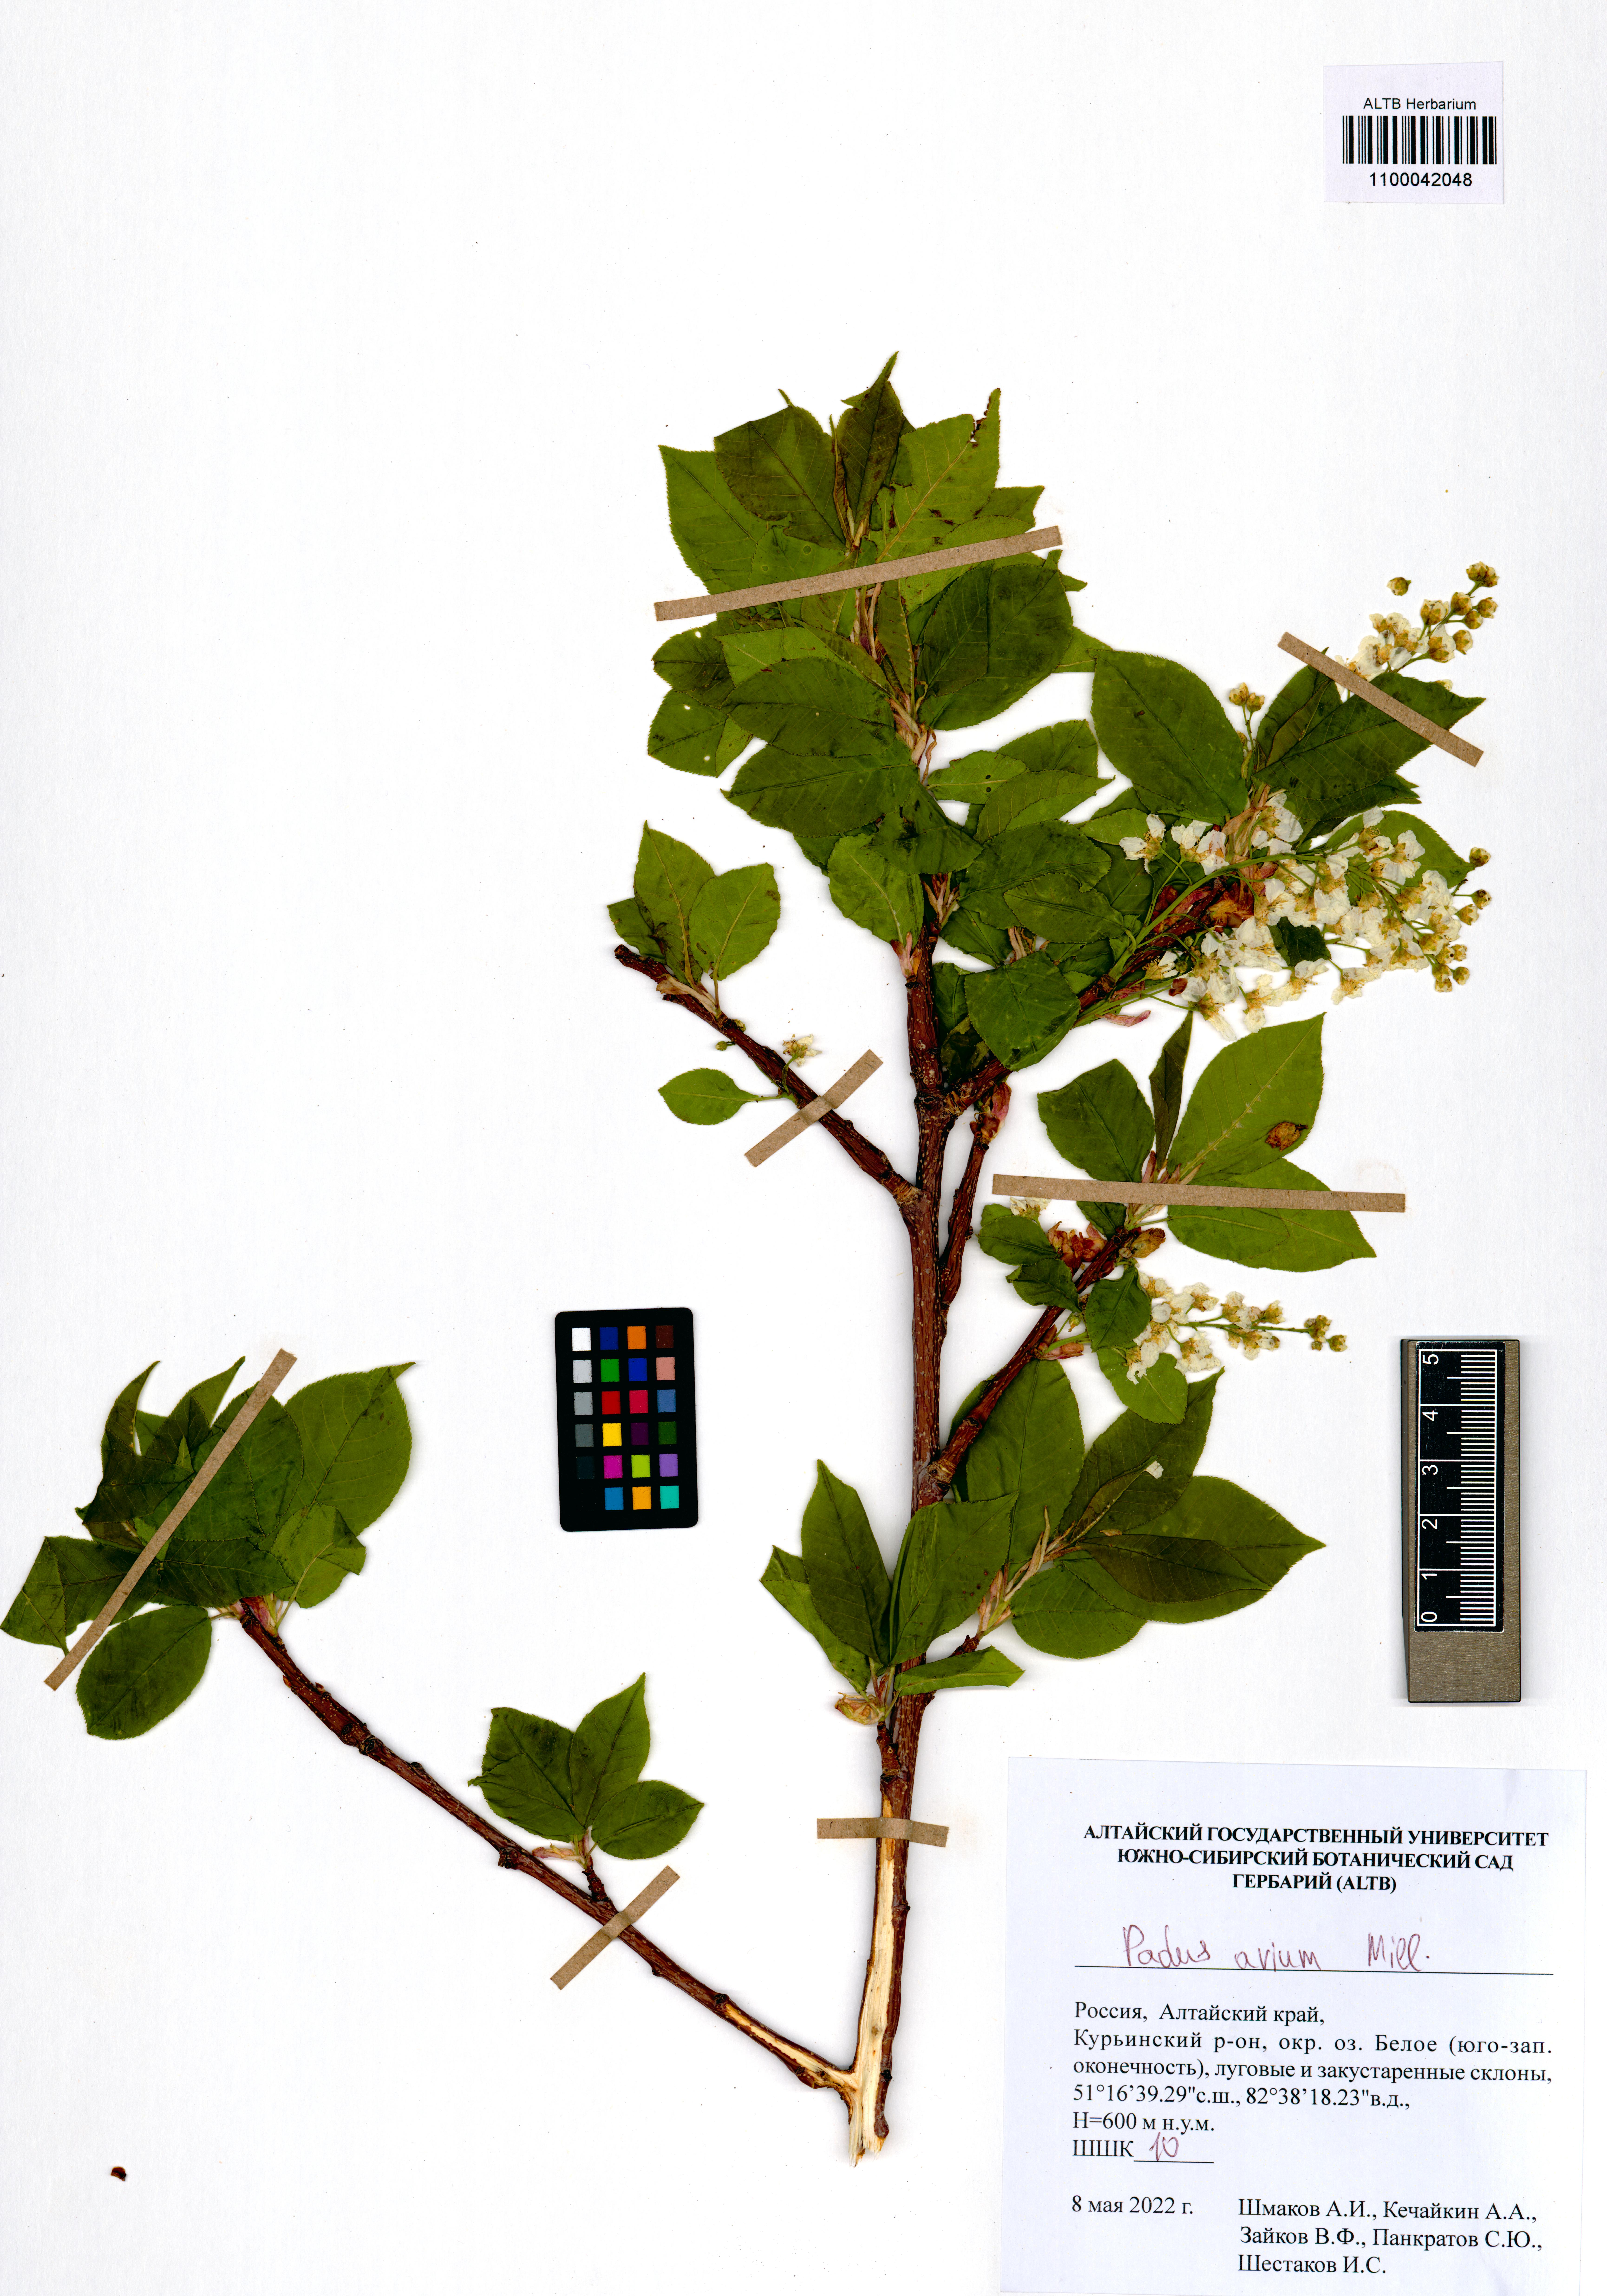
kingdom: Plantae
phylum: Tracheophyta
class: Magnoliopsida
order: Rosales
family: Rosaceae
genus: Prunus
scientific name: Prunus padus
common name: Bird cherry
